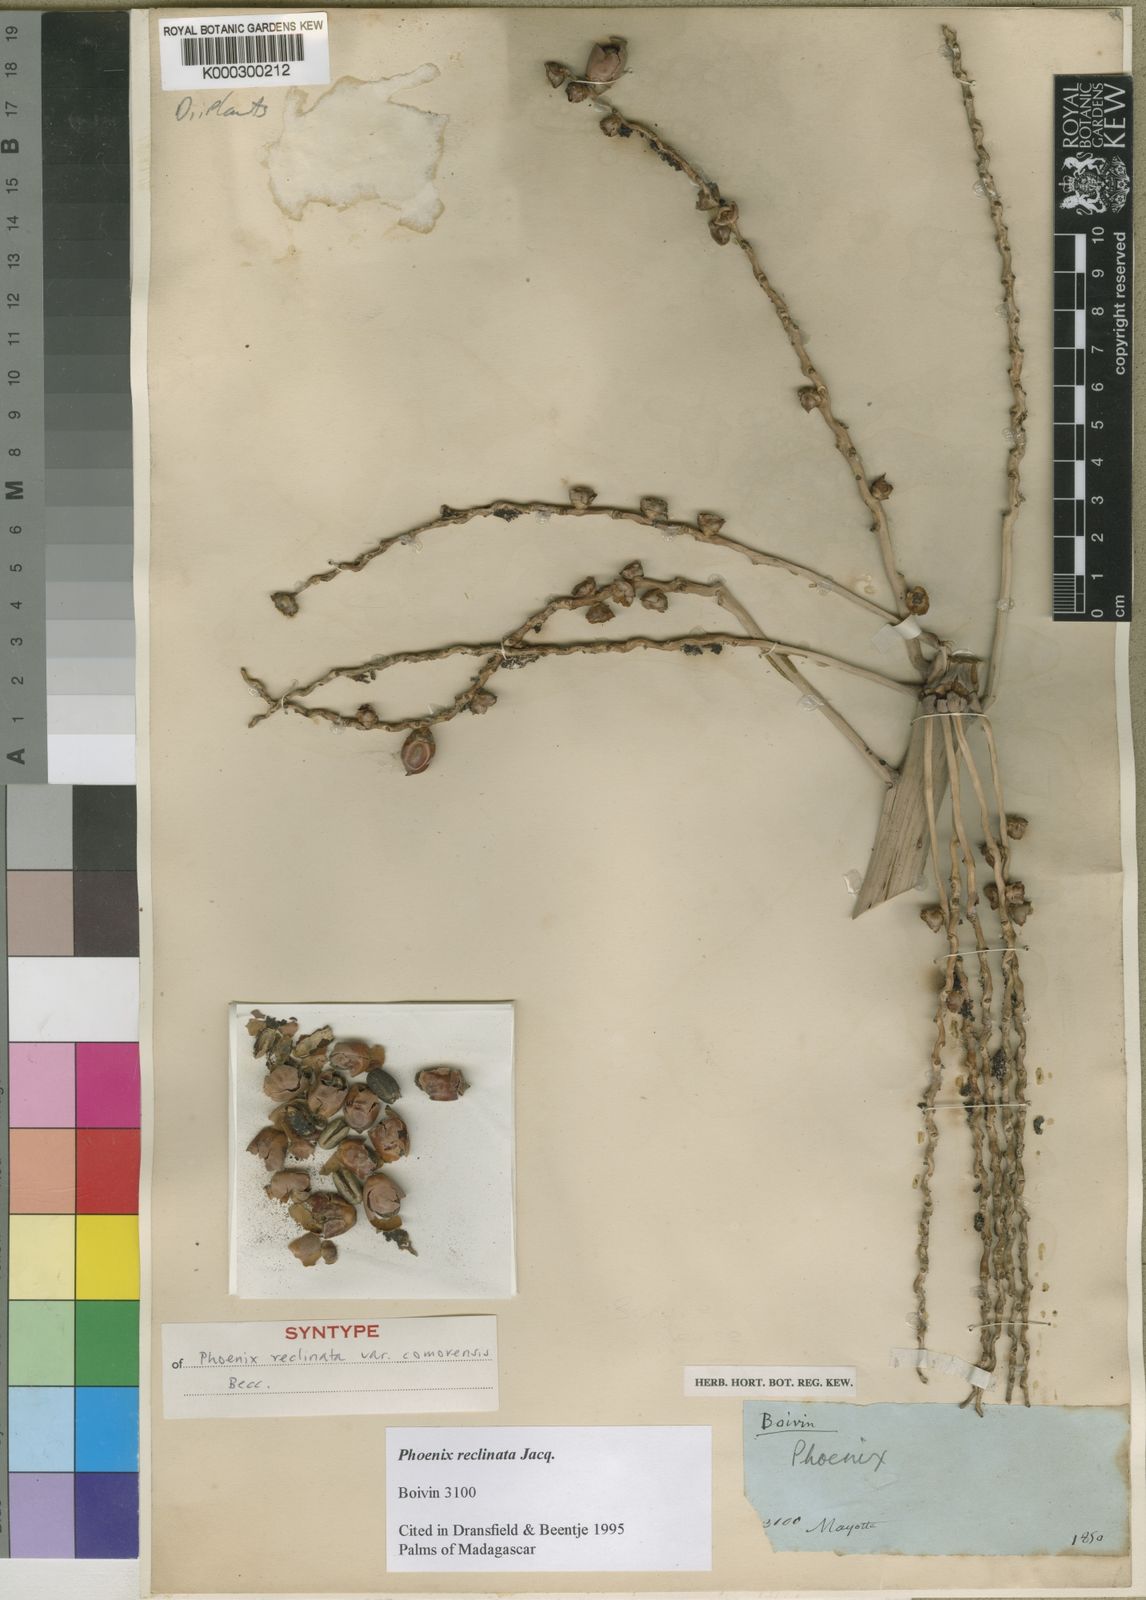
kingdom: Plantae
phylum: Tracheophyta
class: Liliopsida
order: Arecales
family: Arecaceae
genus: Phoenix
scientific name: Phoenix reclinata
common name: Senegal date palm
